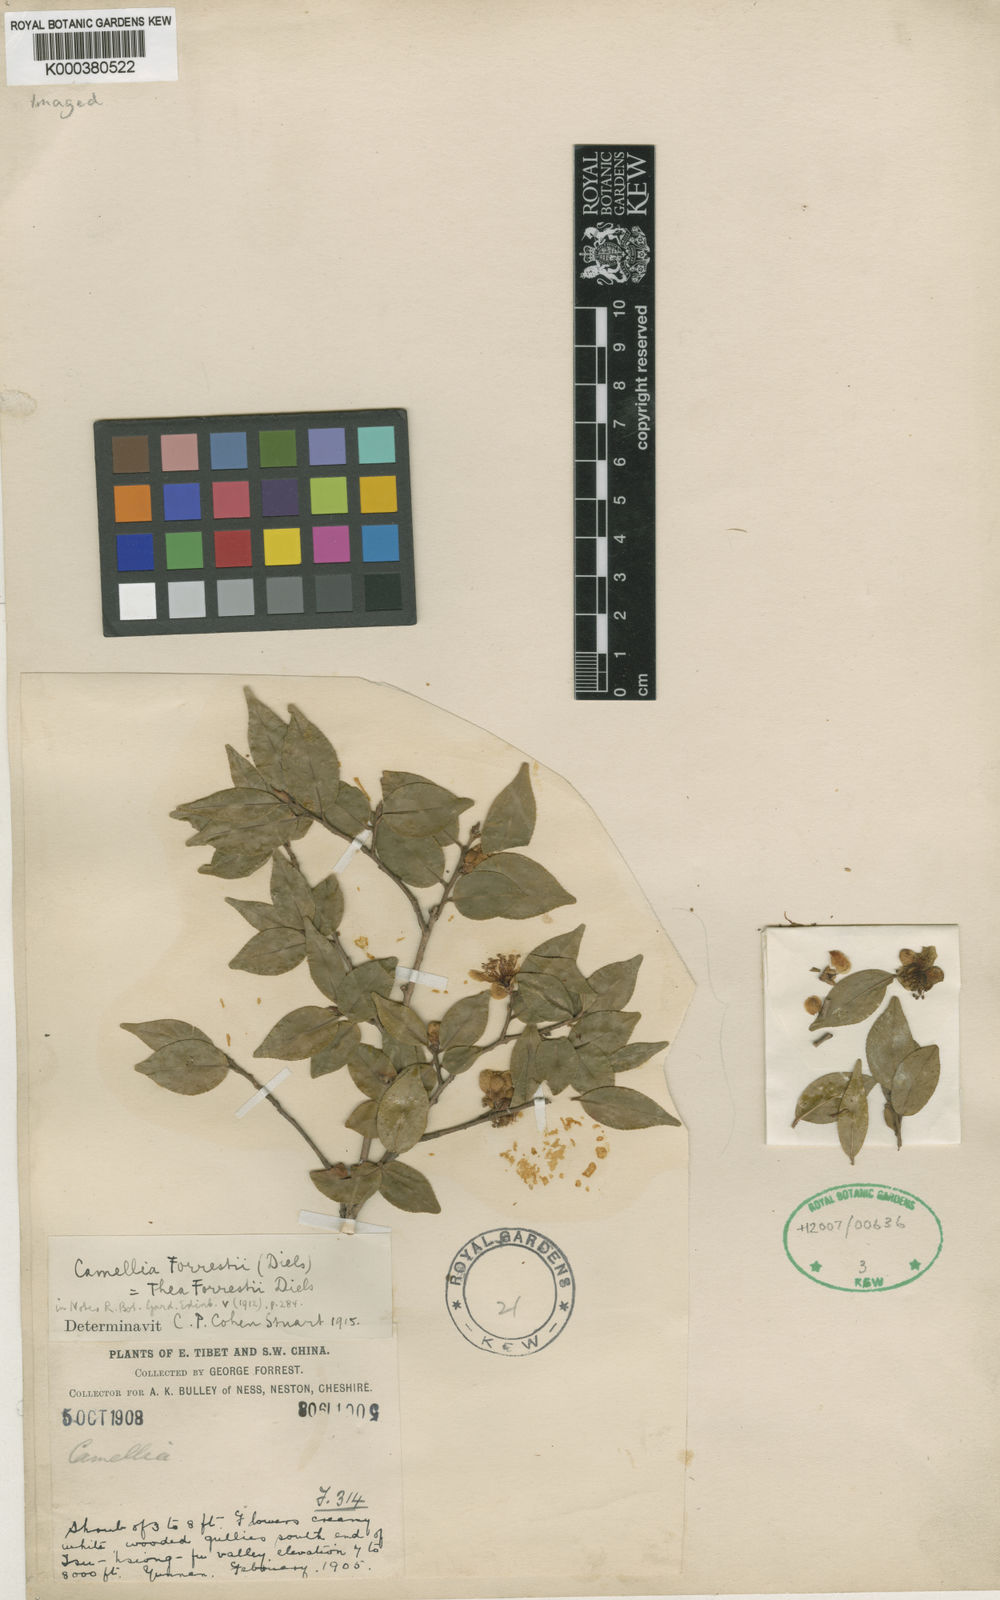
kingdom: Plantae
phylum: Tracheophyta
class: Magnoliopsida
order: Ericales
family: Theaceae
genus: Camellia
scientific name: Camellia forrestii
